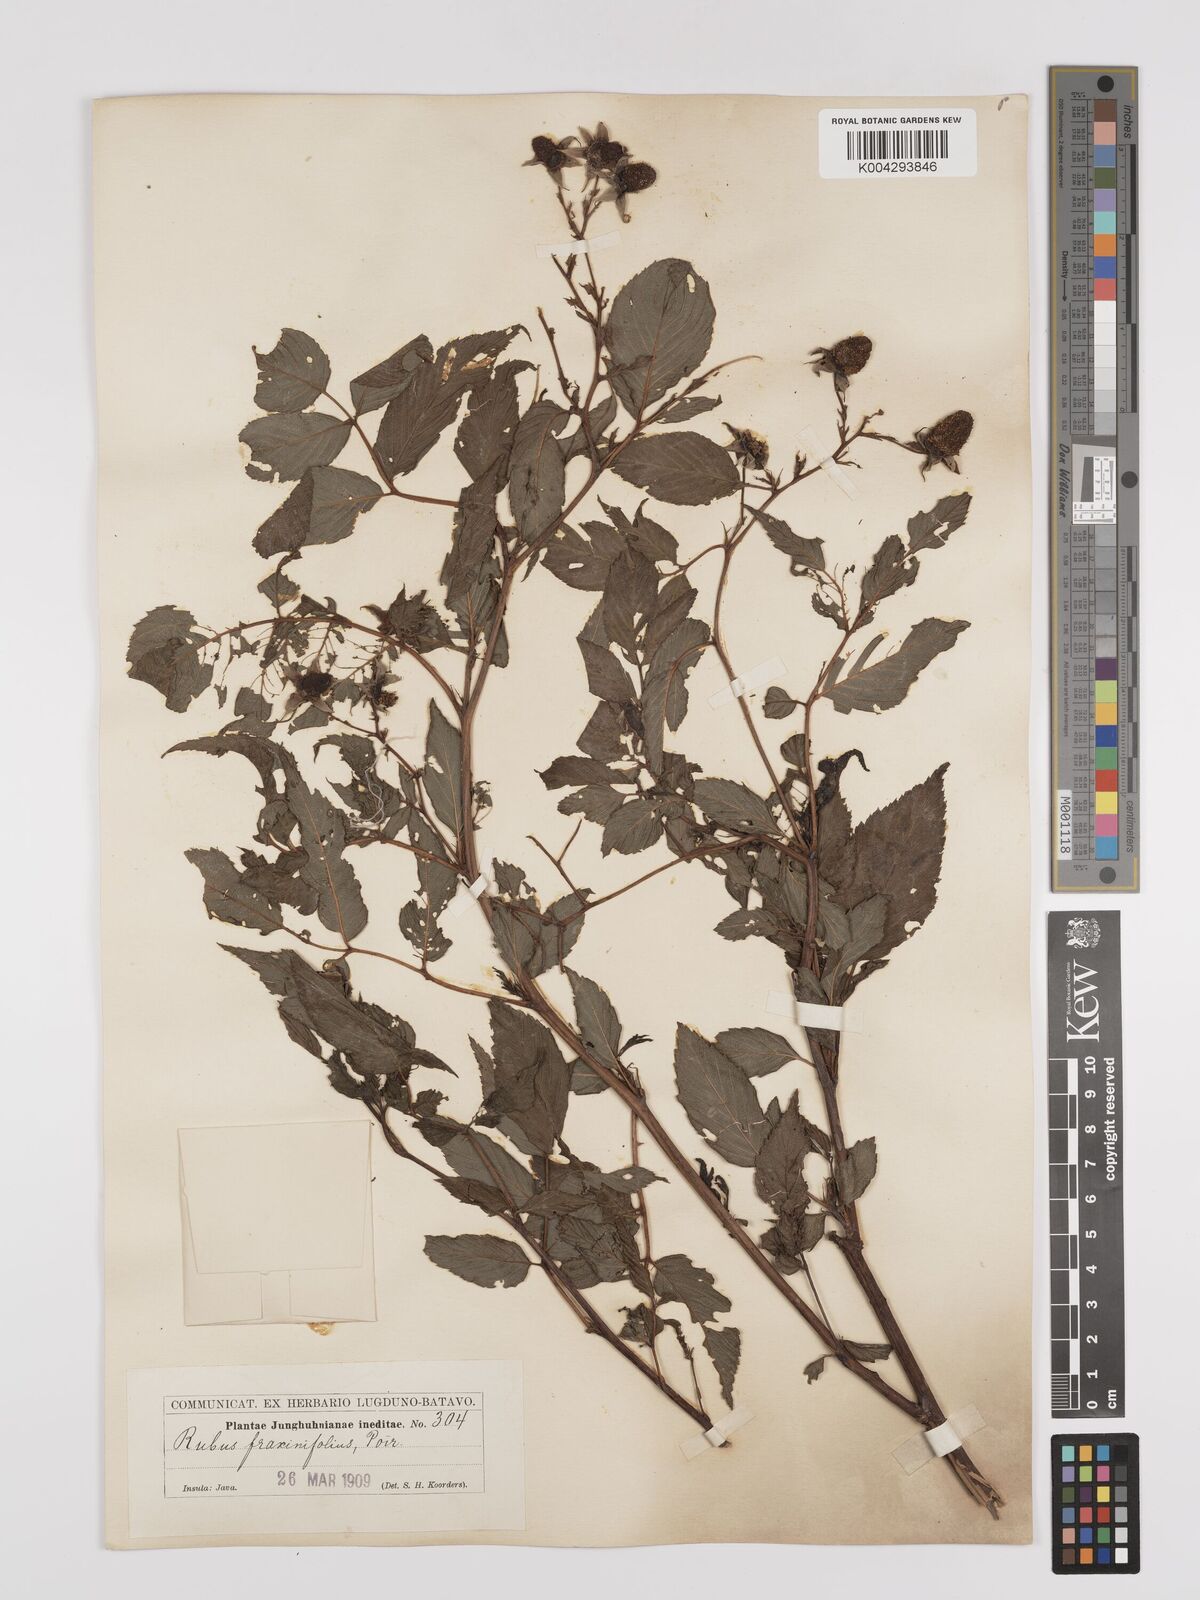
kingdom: Plantae
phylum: Tracheophyta
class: Magnoliopsida
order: Rosales
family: Rosaceae
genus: Rubus
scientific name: Rubus fraxinifolius
